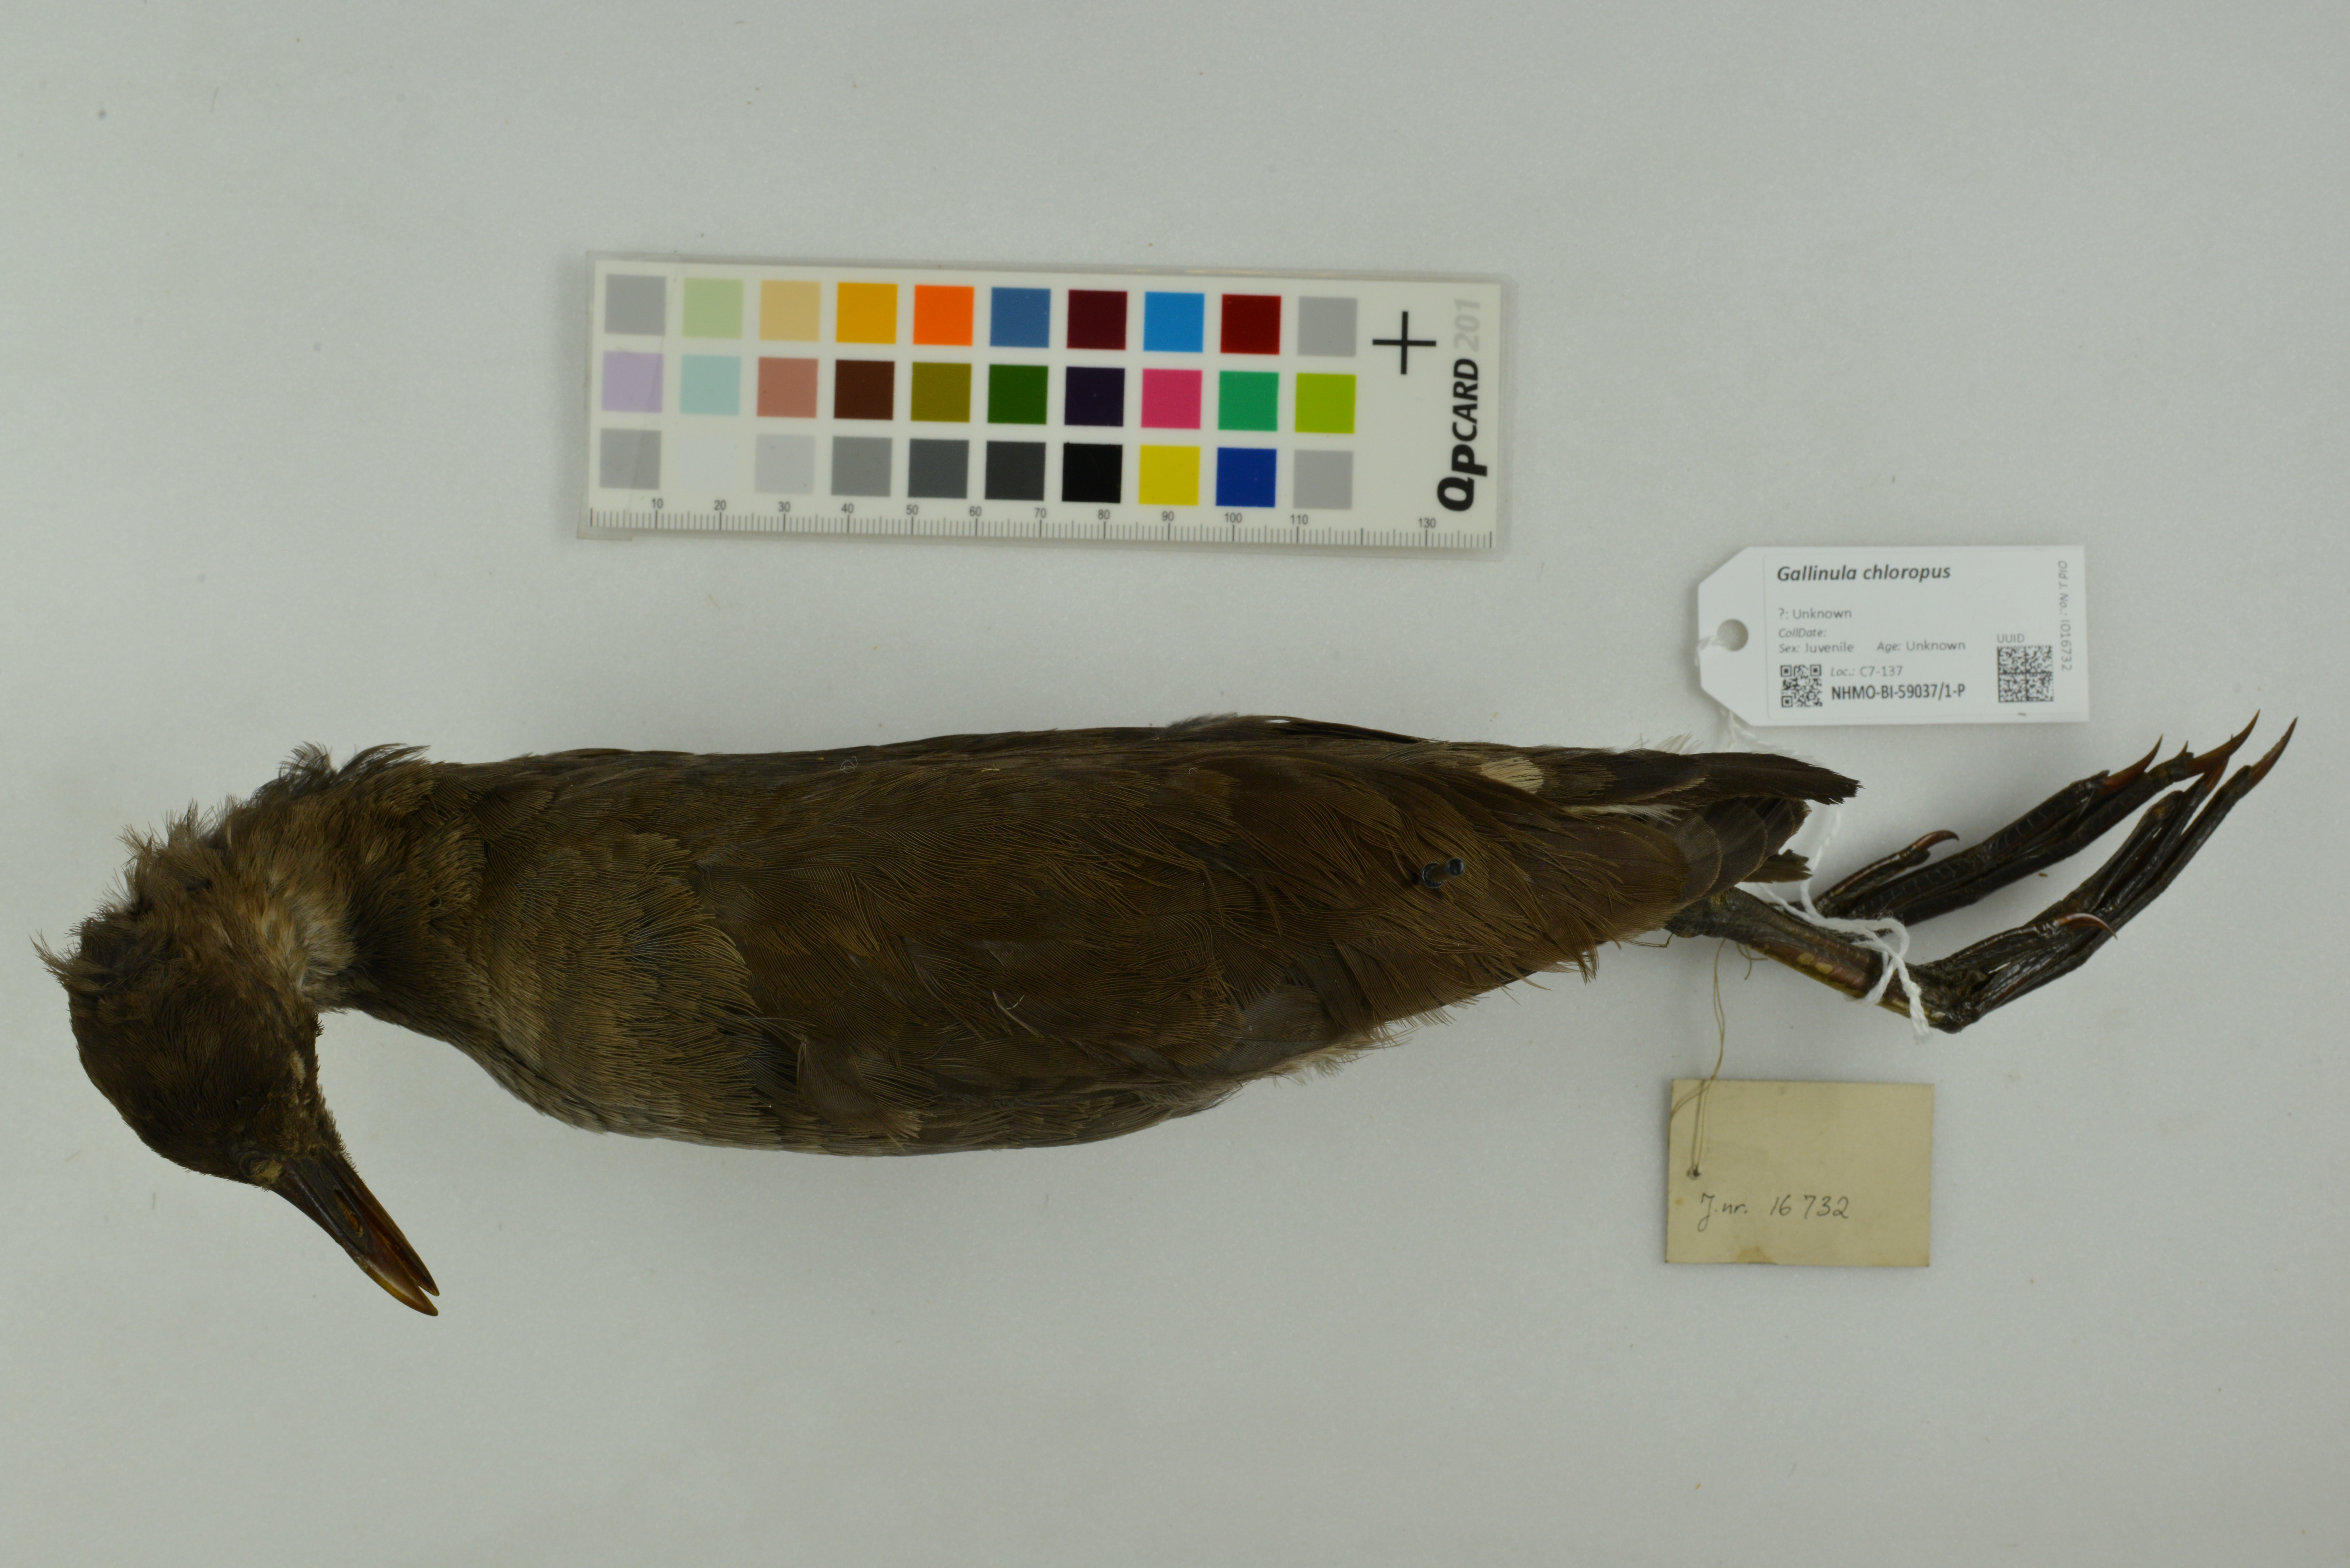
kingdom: Animalia
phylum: Chordata
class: Aves
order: Gruiformes
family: Rallidae
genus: Gallinula
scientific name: Gallinula chloropus
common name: Common moorhen
